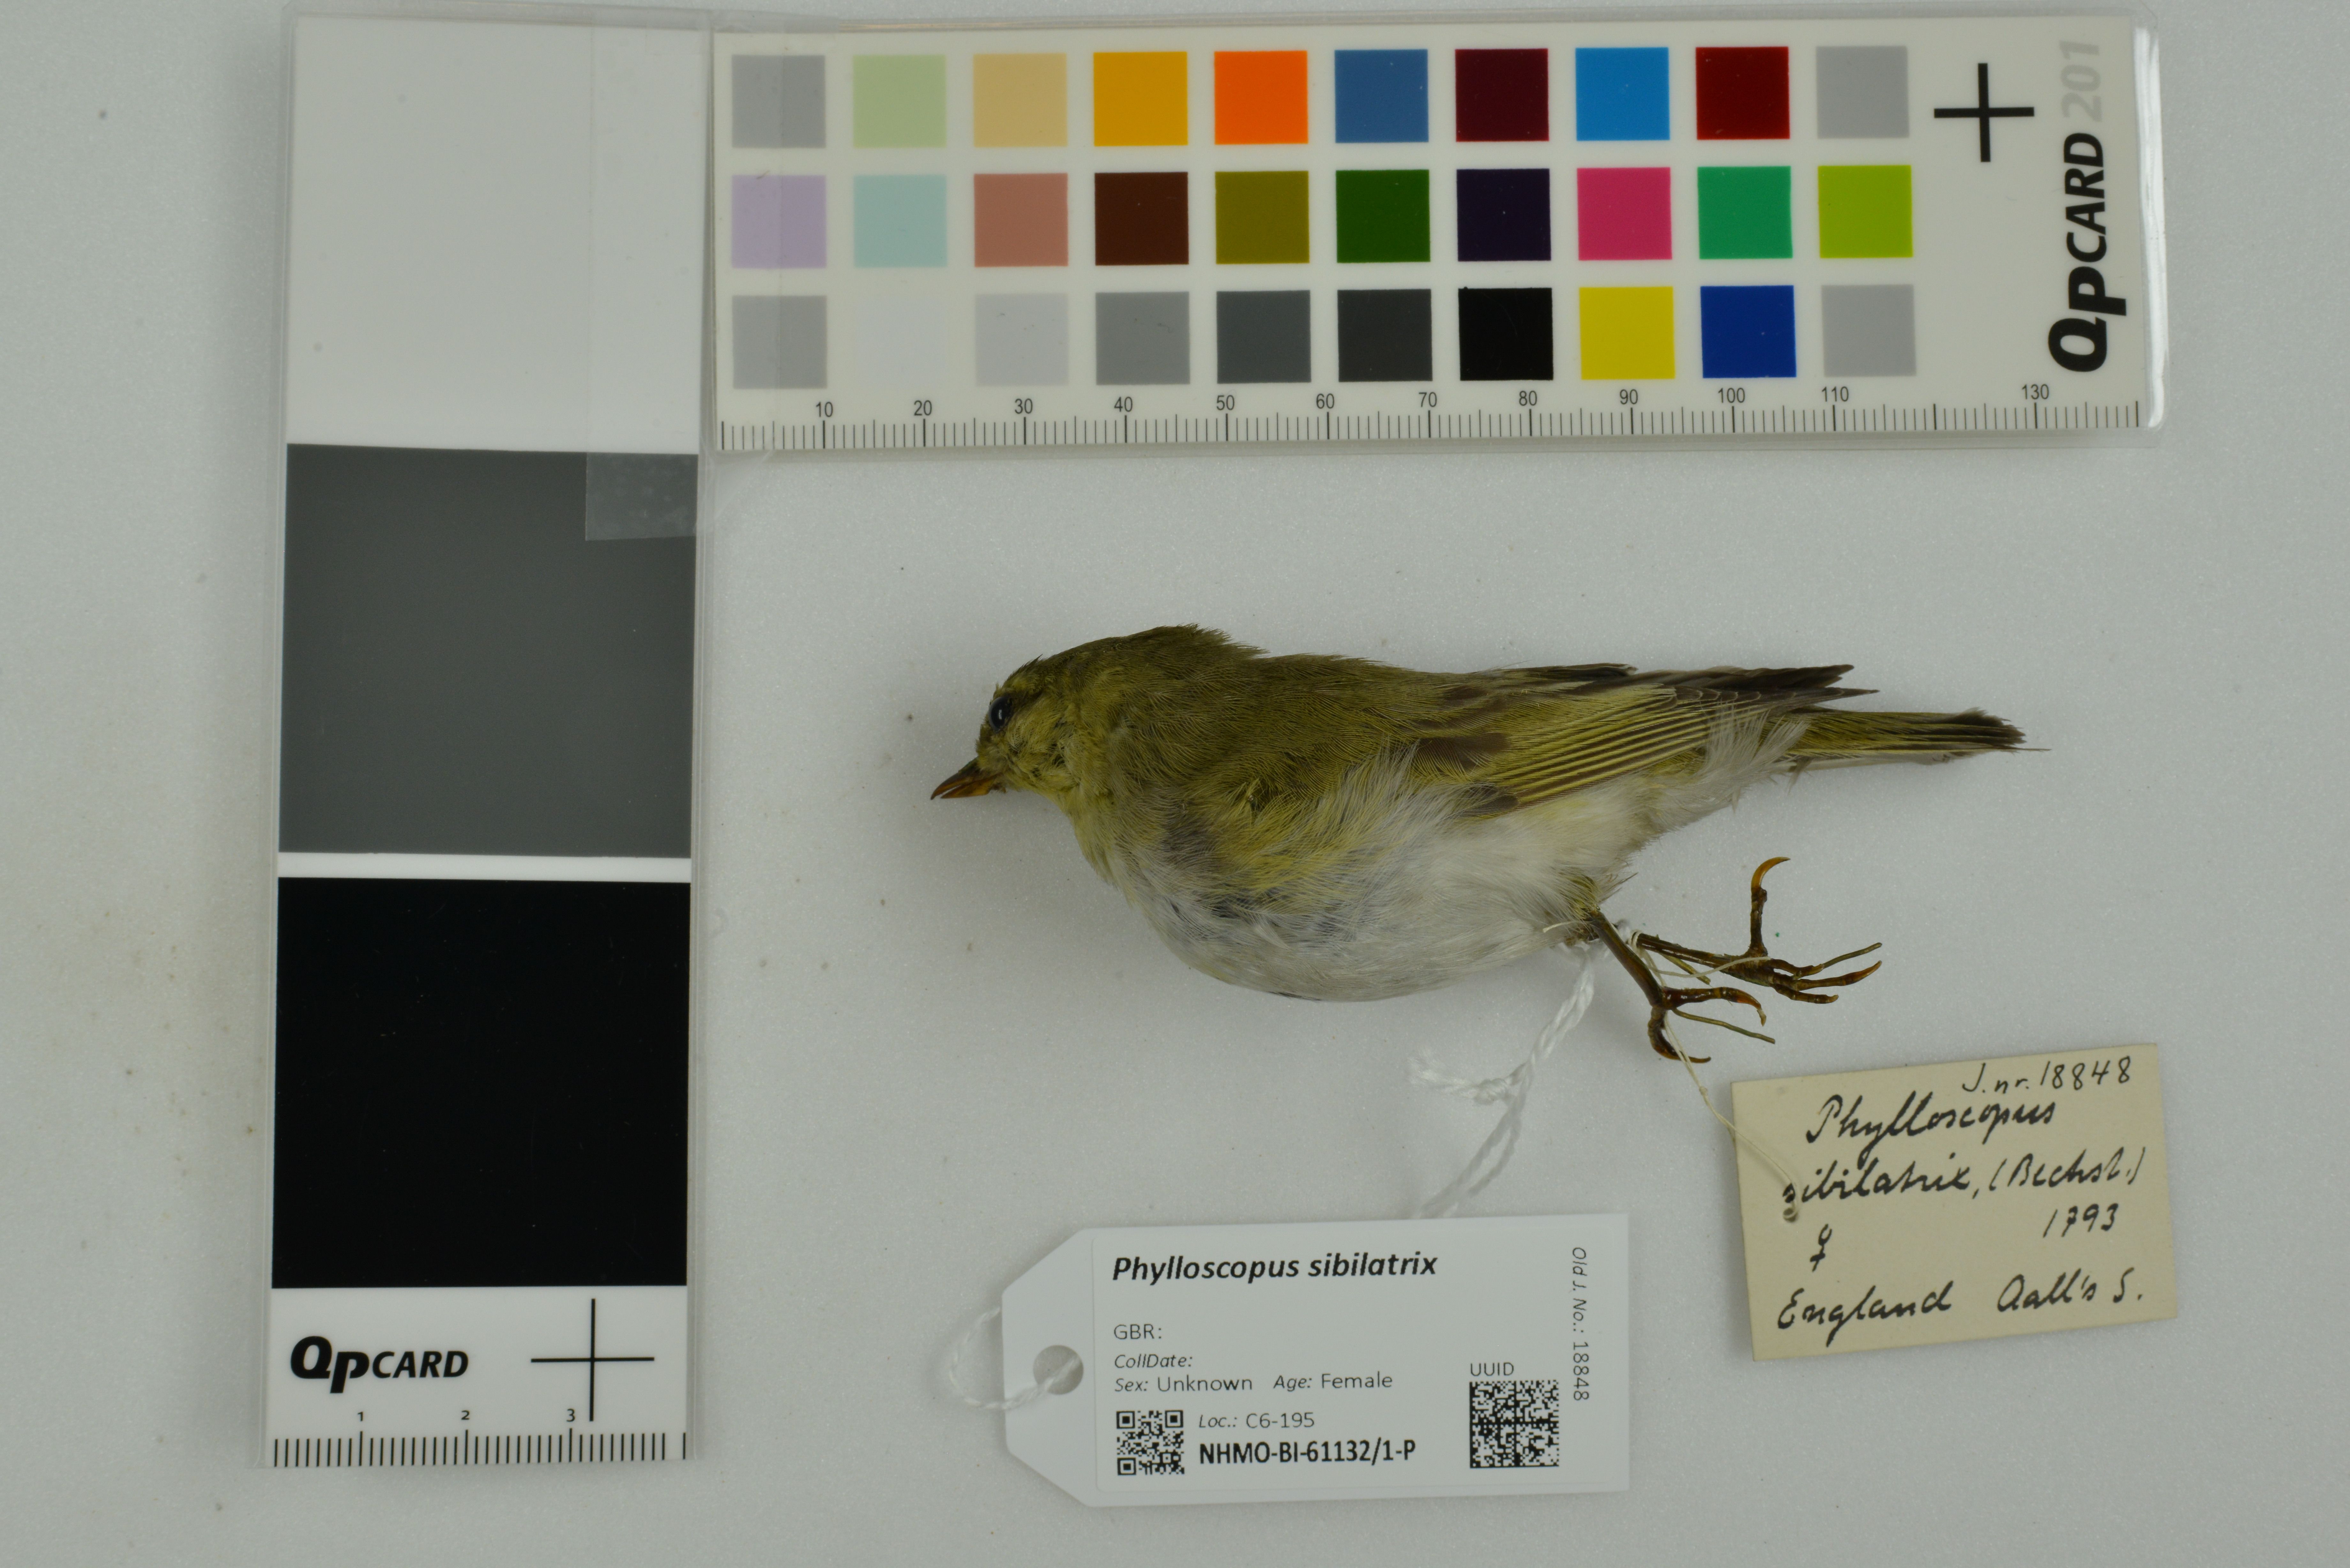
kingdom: Animalia
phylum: Chordata
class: Aves
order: Passeriformes
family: Phylloscopidae
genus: Phylloscopus
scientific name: Phylloscopus sibillatrix
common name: Wood warbler
